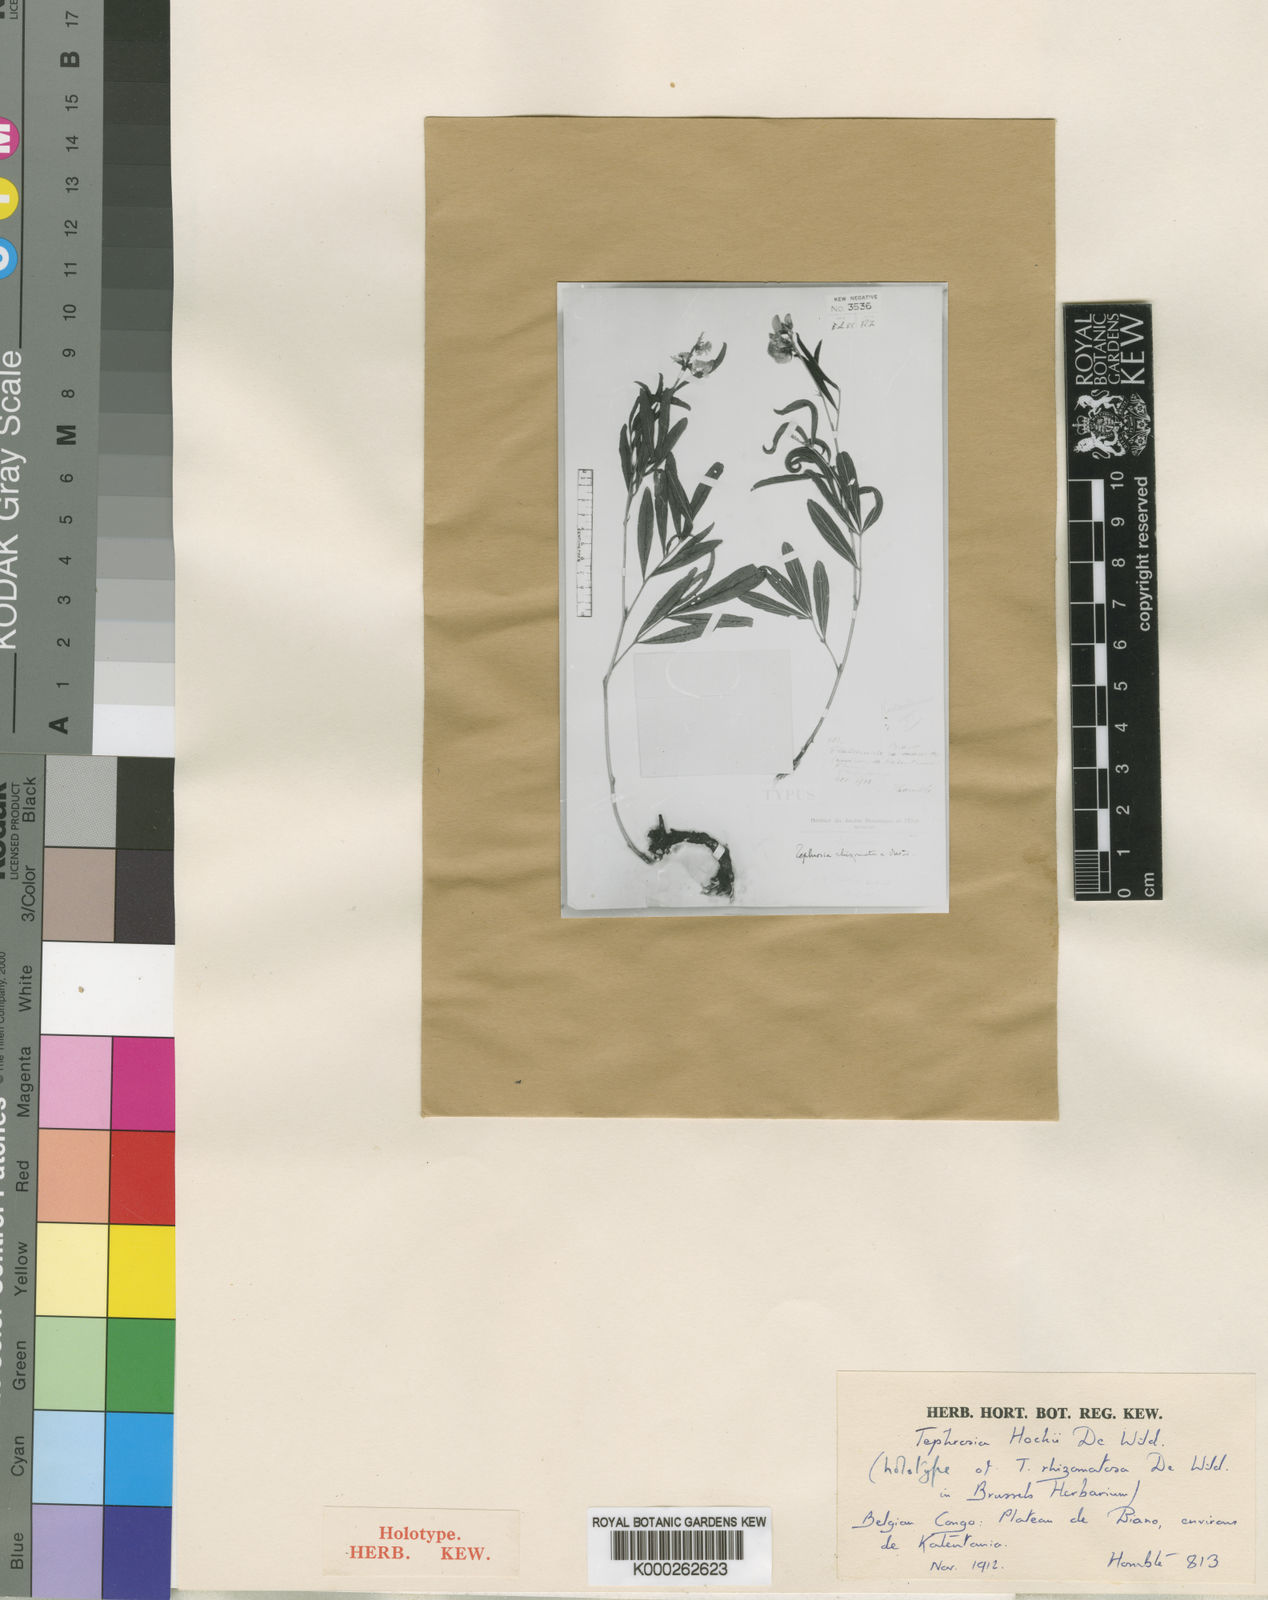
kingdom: Plantae
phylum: Tracheophyta
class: Magnoliopsida
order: Fabales
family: Fabaceae
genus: Tephrosia
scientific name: Tephrosia hockii
